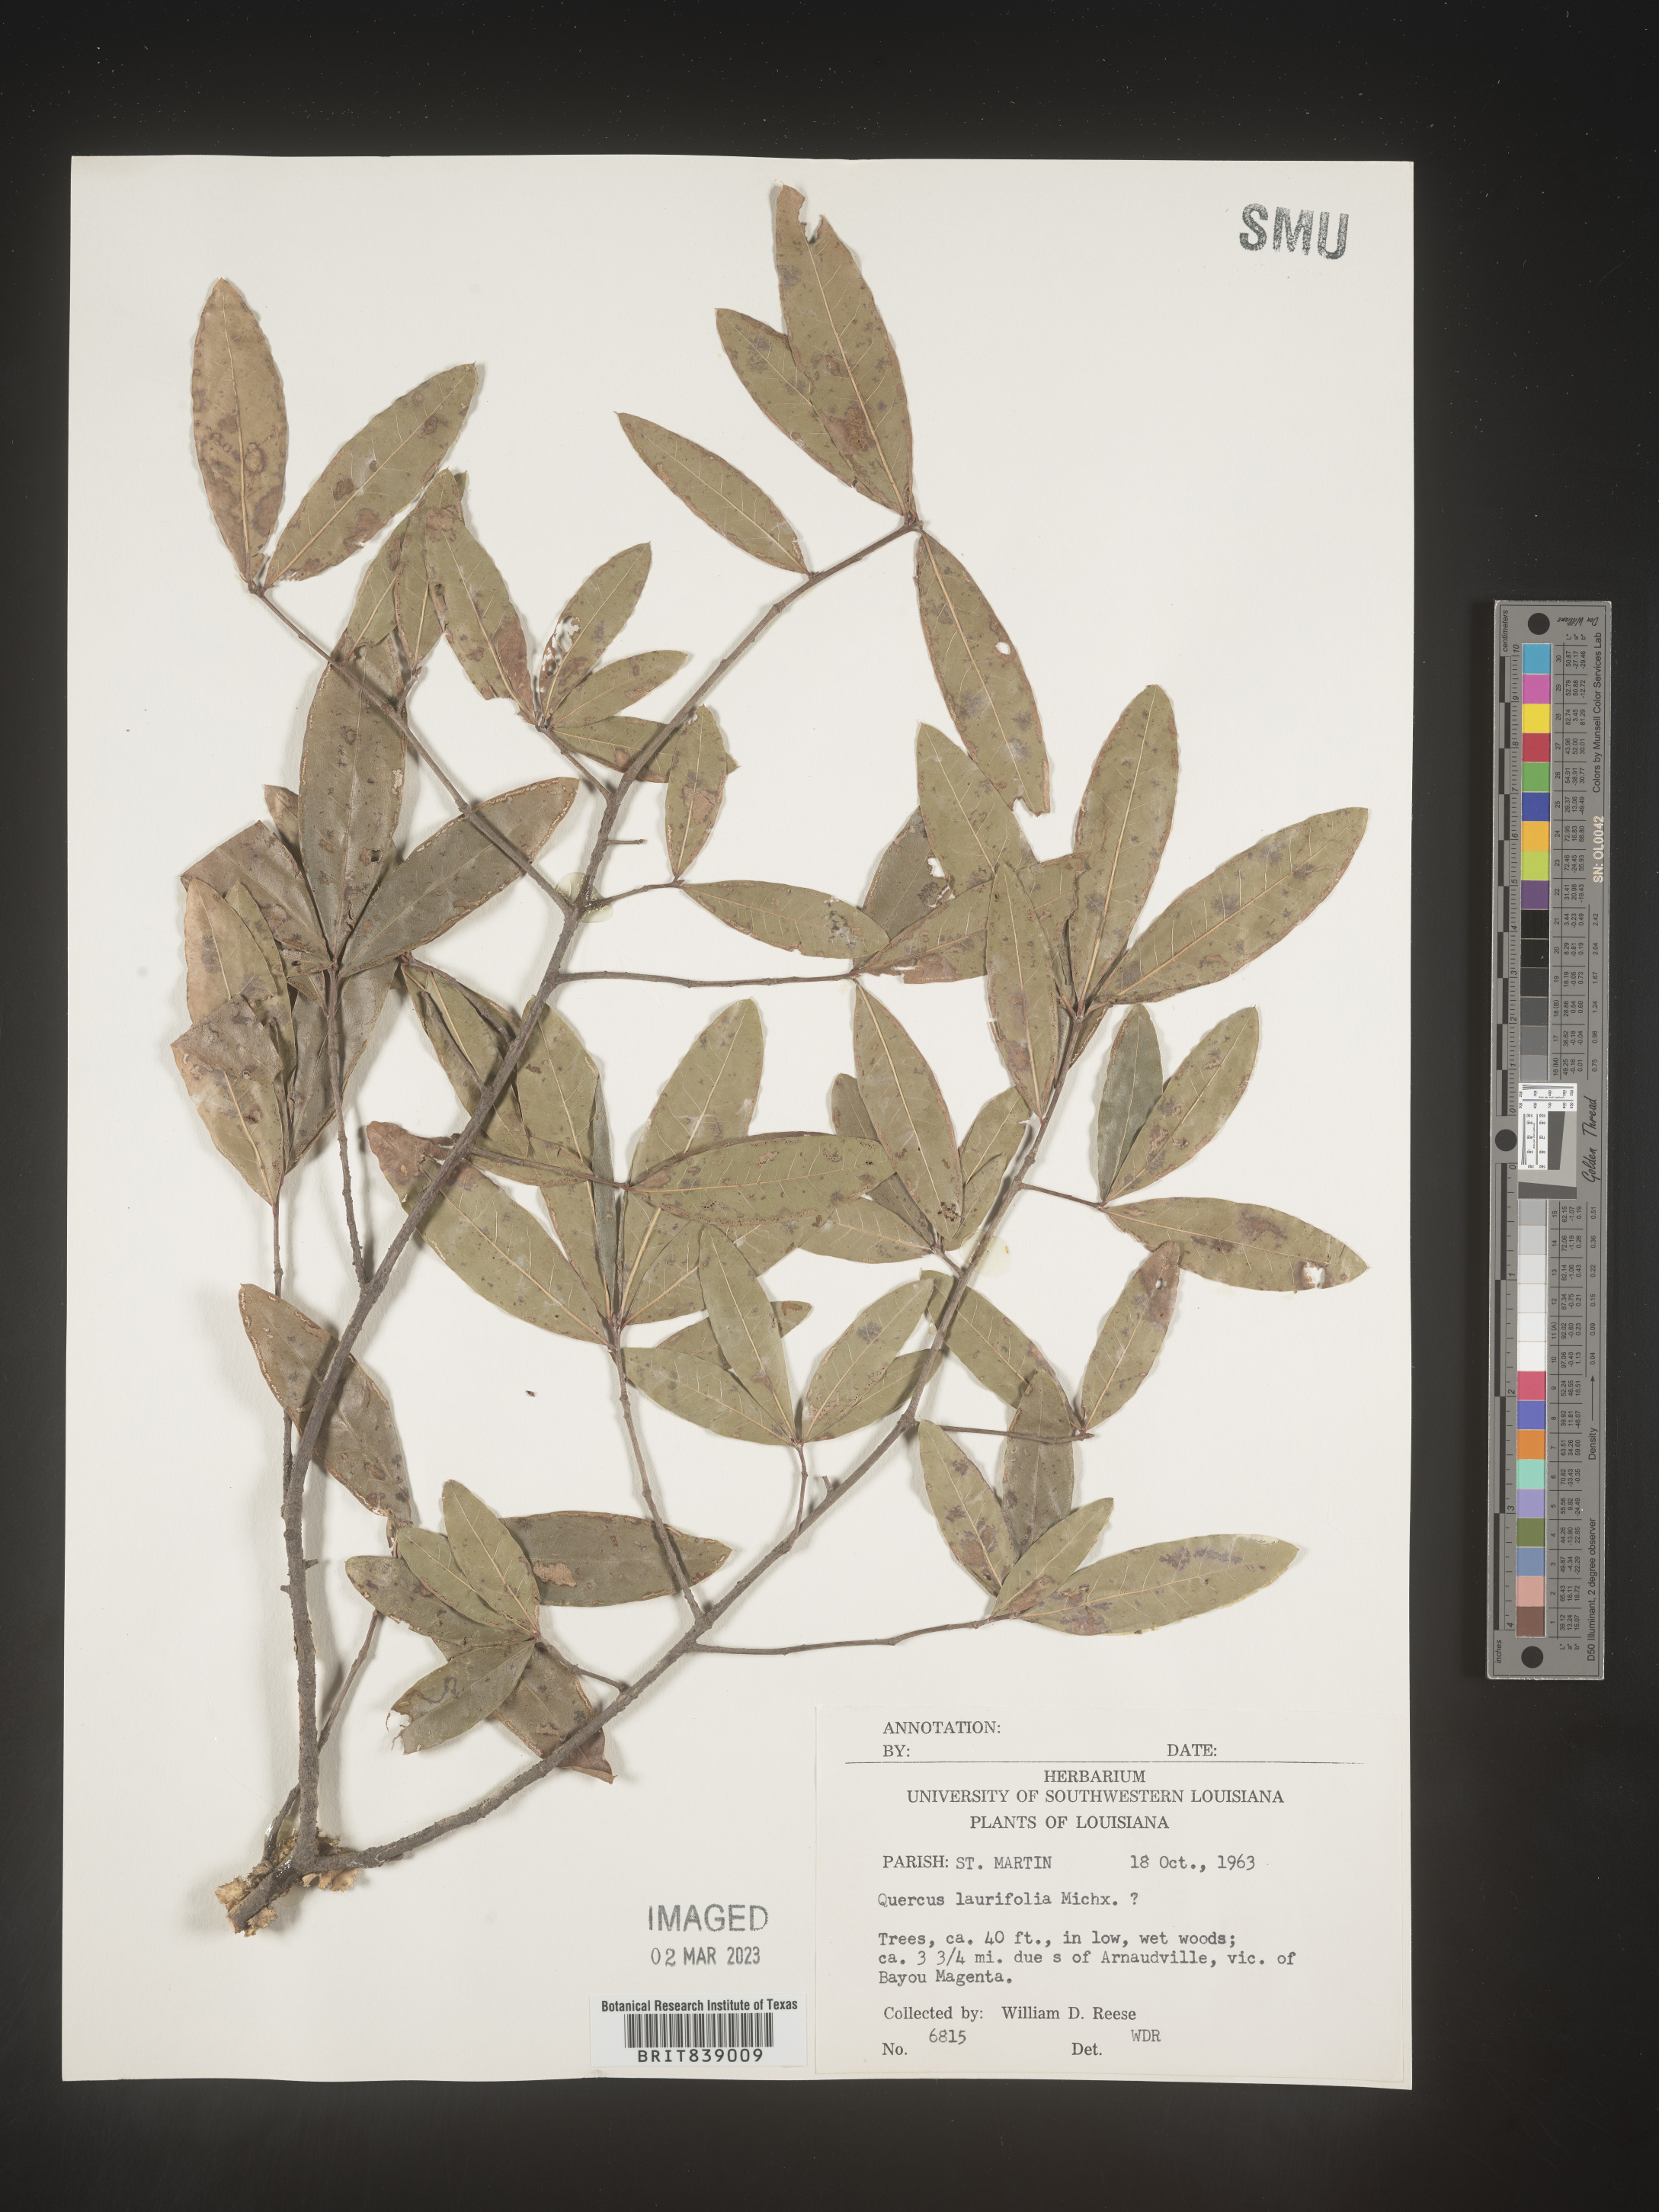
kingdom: Plantae
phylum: Tracheophyta
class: Magnoliopsida
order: Fagales
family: Fagaceae
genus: Quercus
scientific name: Quercus laurifolia
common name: Swamp laurel oak
